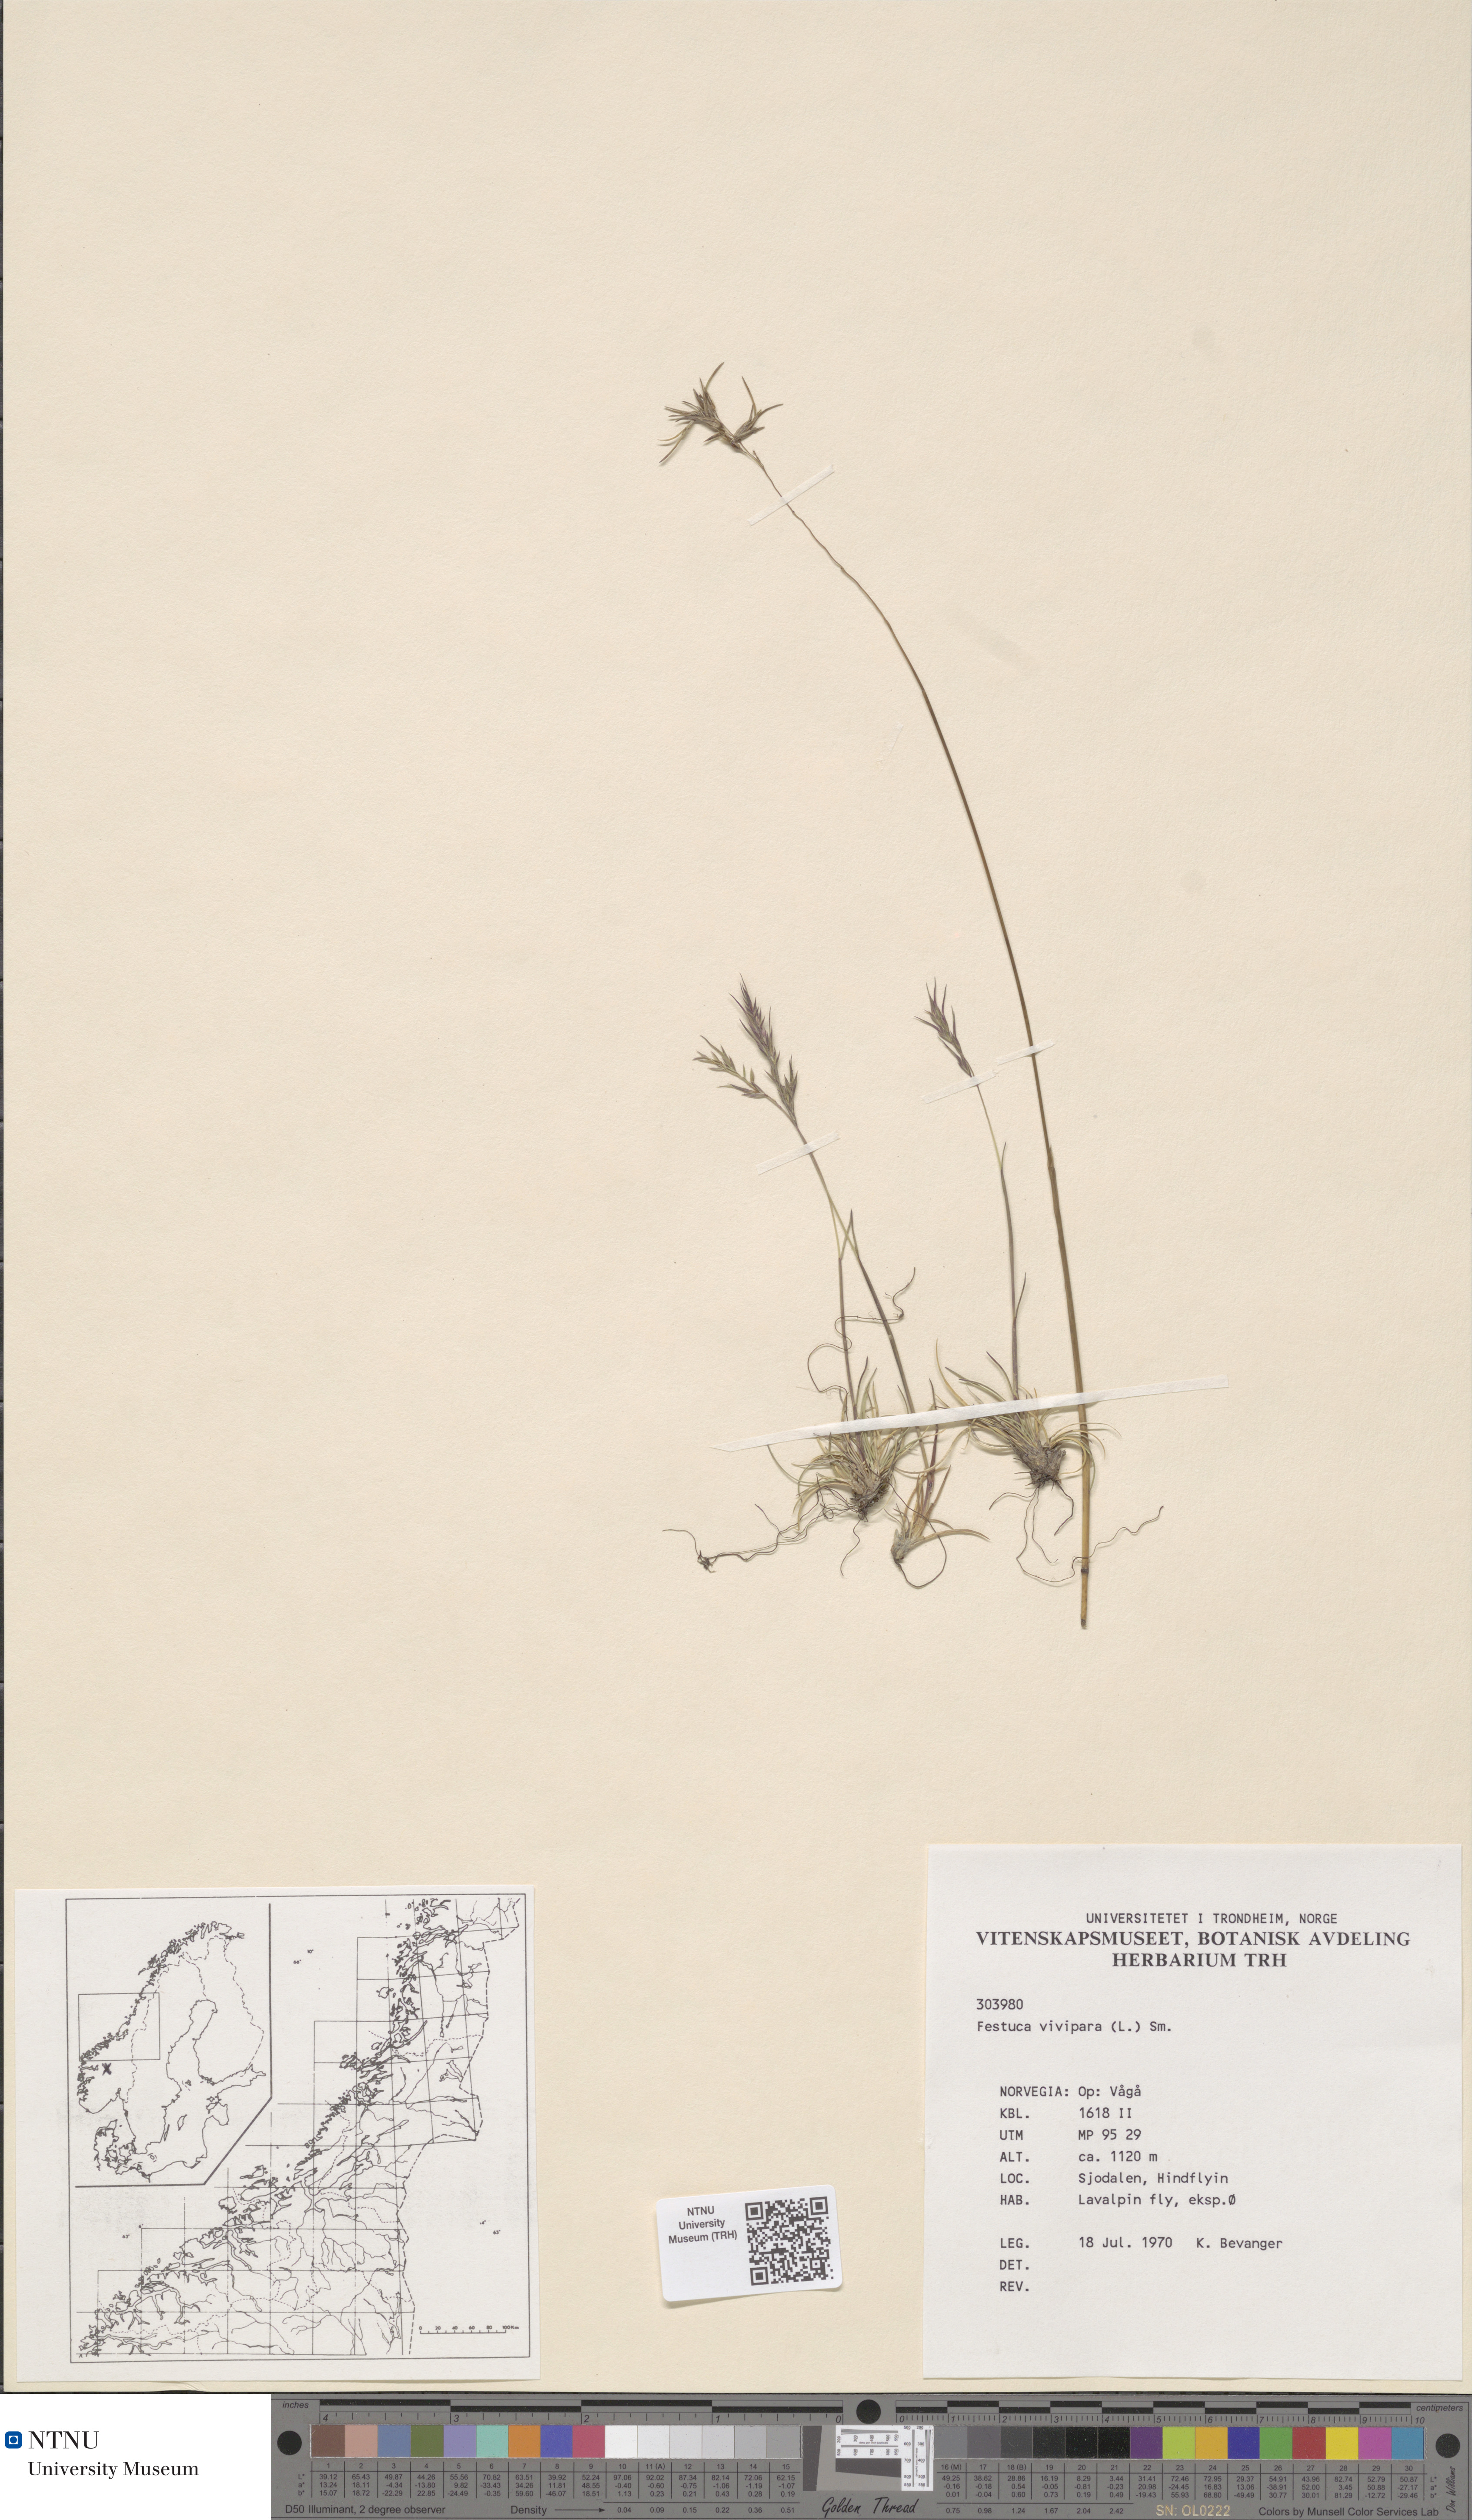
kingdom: Plantae
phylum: Tracheophyta
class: Liliopsida
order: Poales
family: Poaceae
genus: Festuca
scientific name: Festuca vivipara
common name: Viviparous sheep's-fescue
